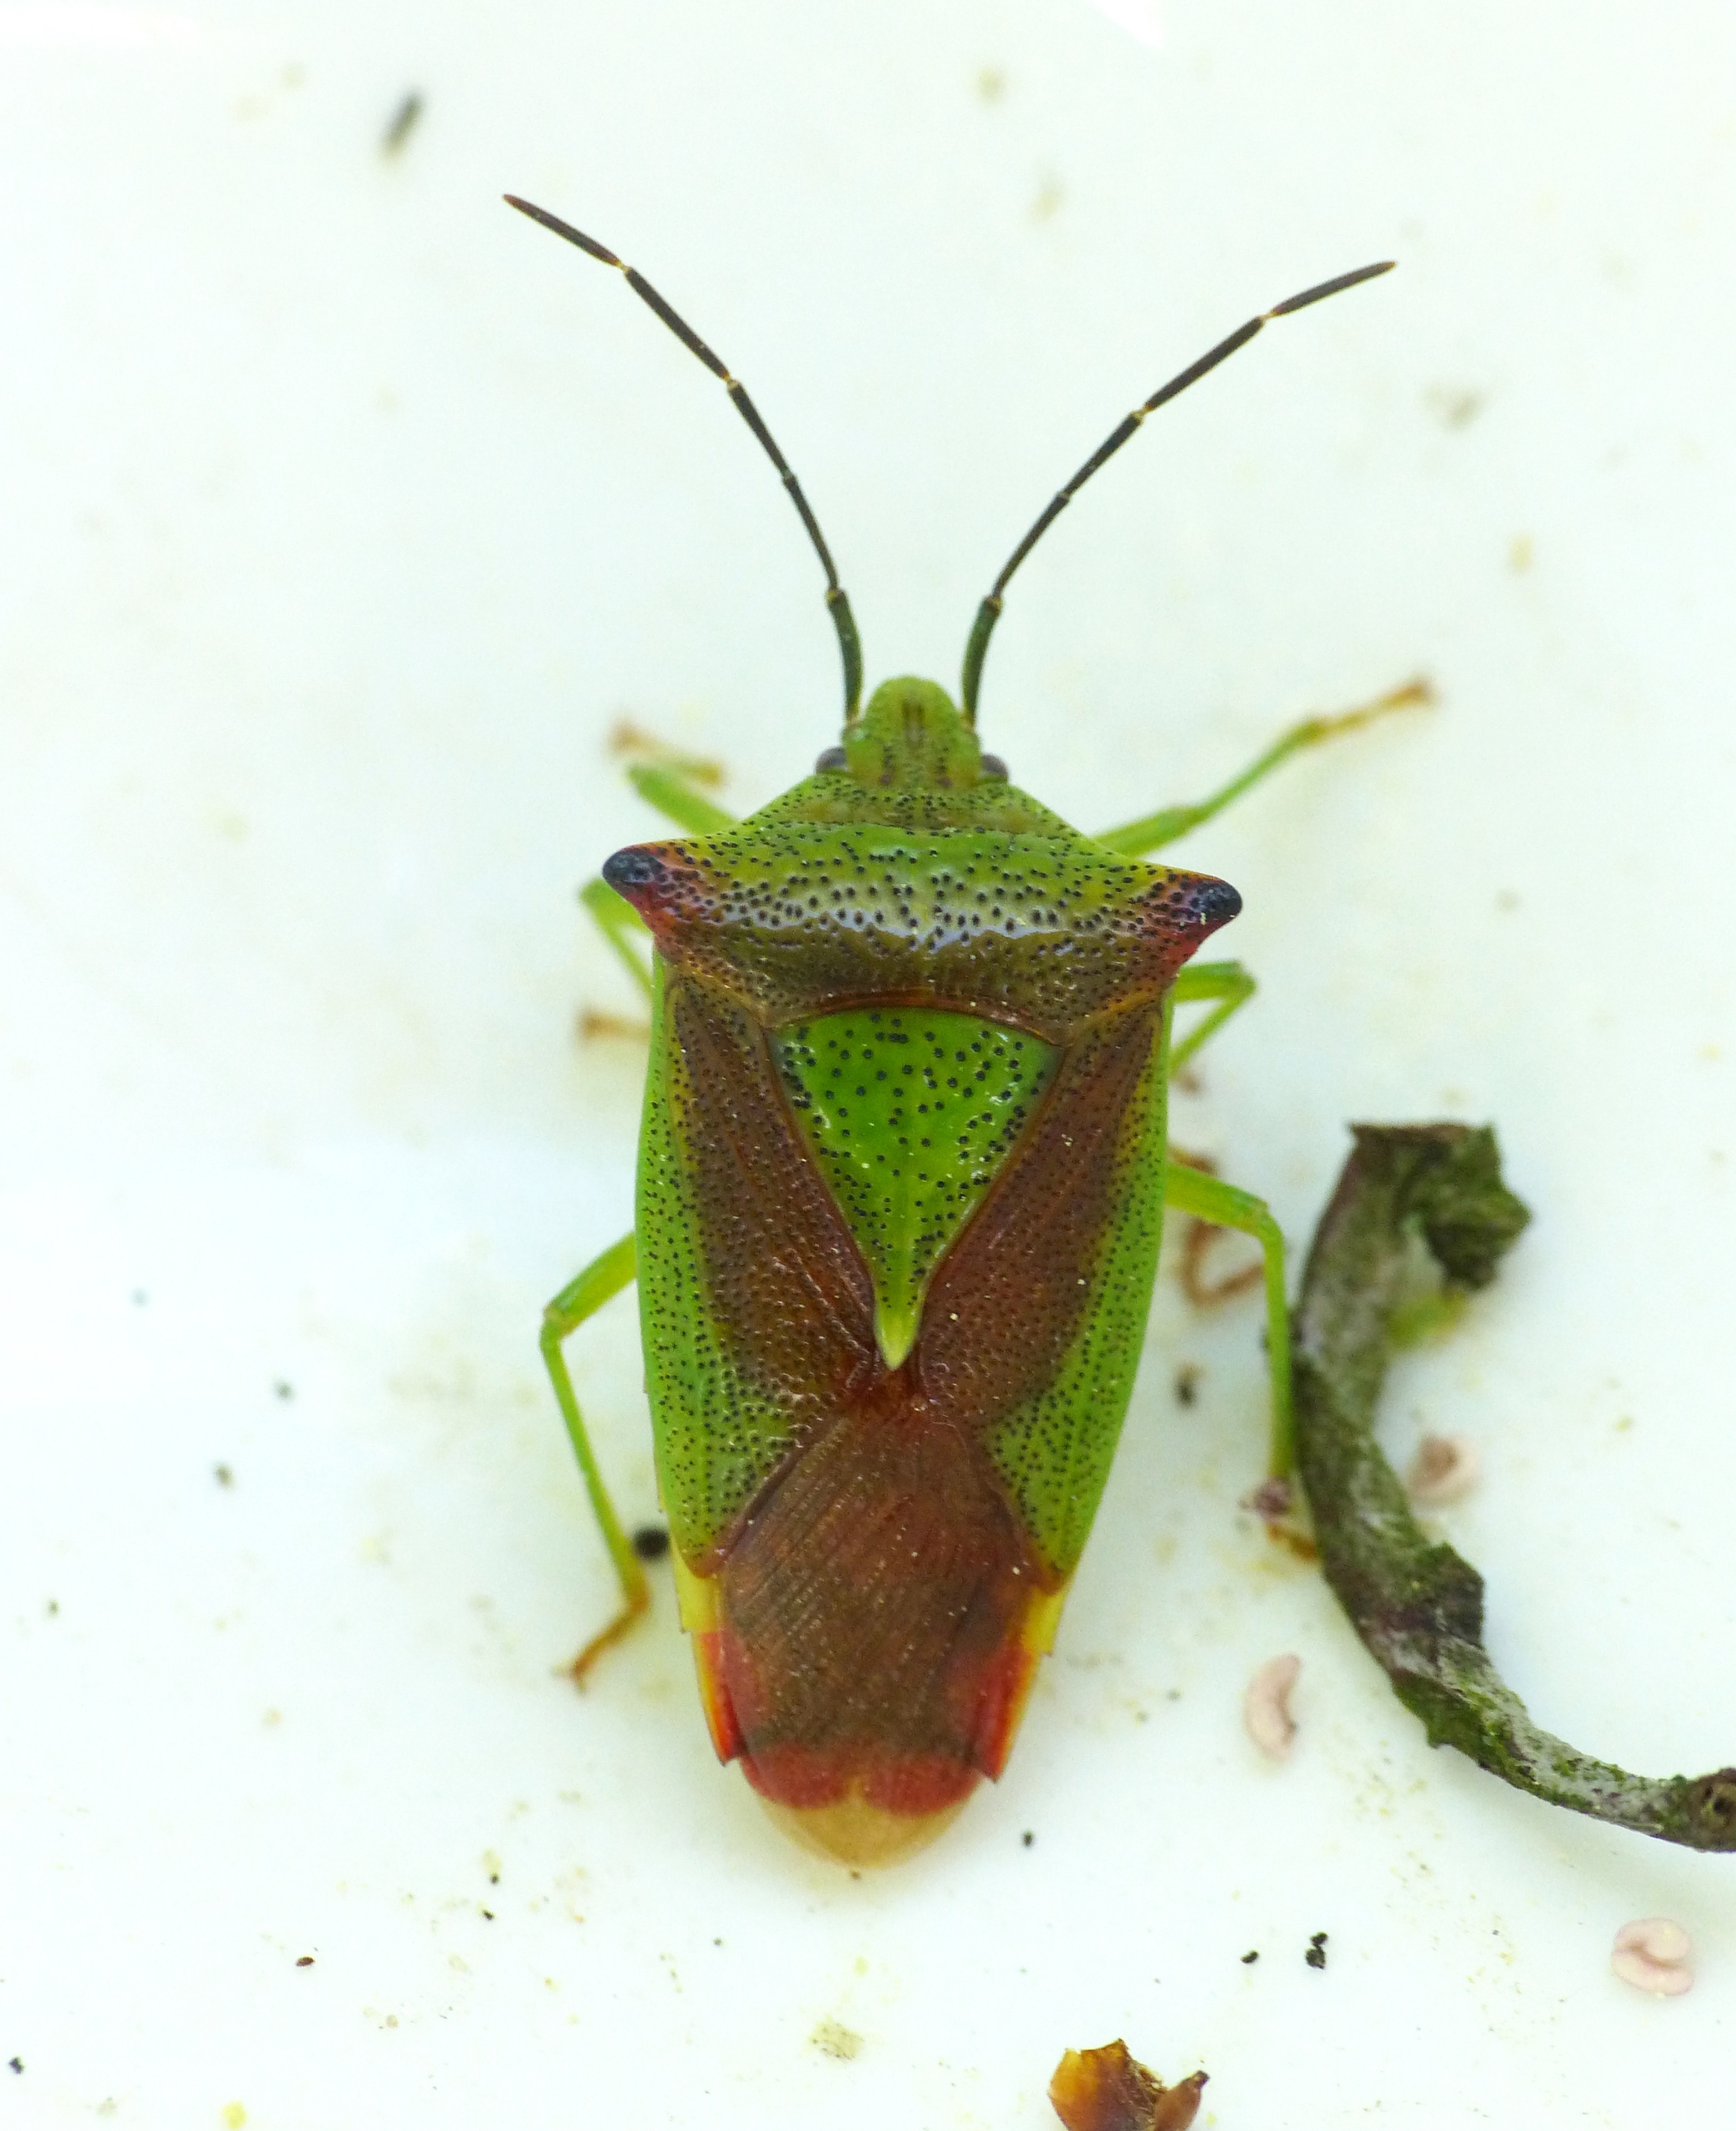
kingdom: Animalia
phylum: Arthropoda
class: Insecta
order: Hemiptera
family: Acanthosomatidae
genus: Acanthosoma
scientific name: Acanthosoma haemorrhoidale
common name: Stor løvtæge
